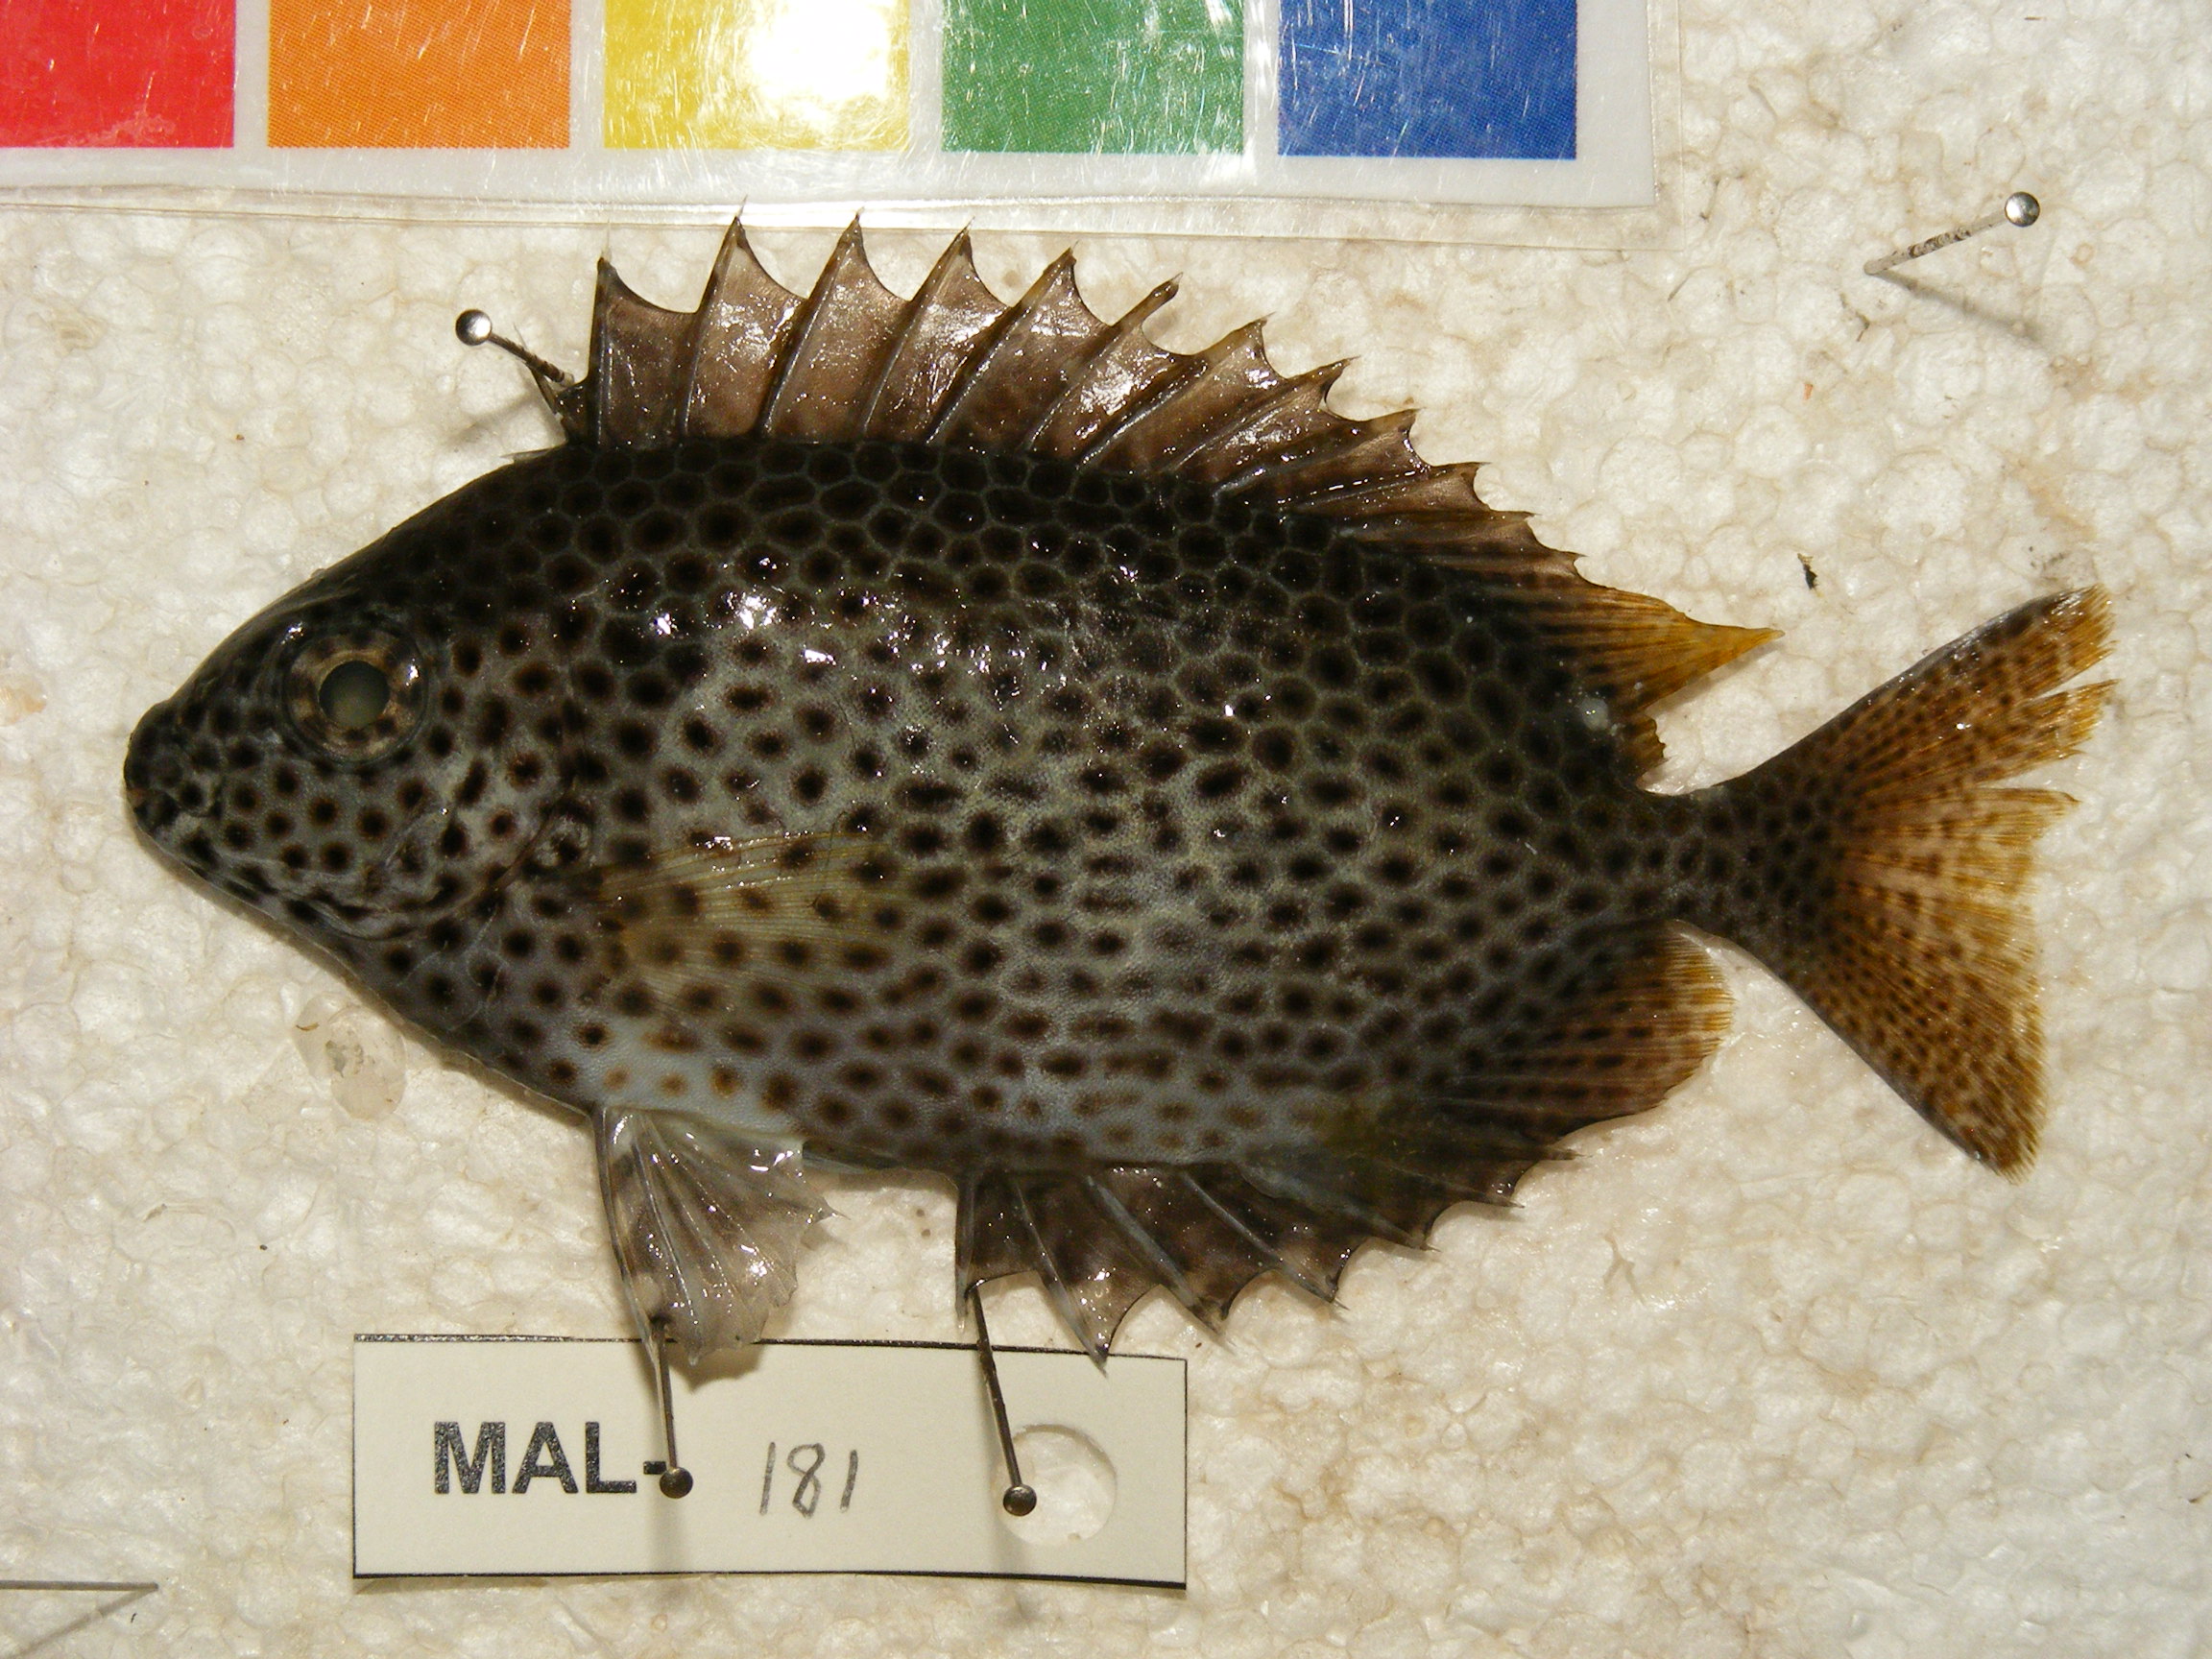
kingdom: Animalia
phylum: Chordata
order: Perciformes
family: Siganidae
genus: Siganus
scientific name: Siganus stellatus
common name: Brown-spotted spinefoot
